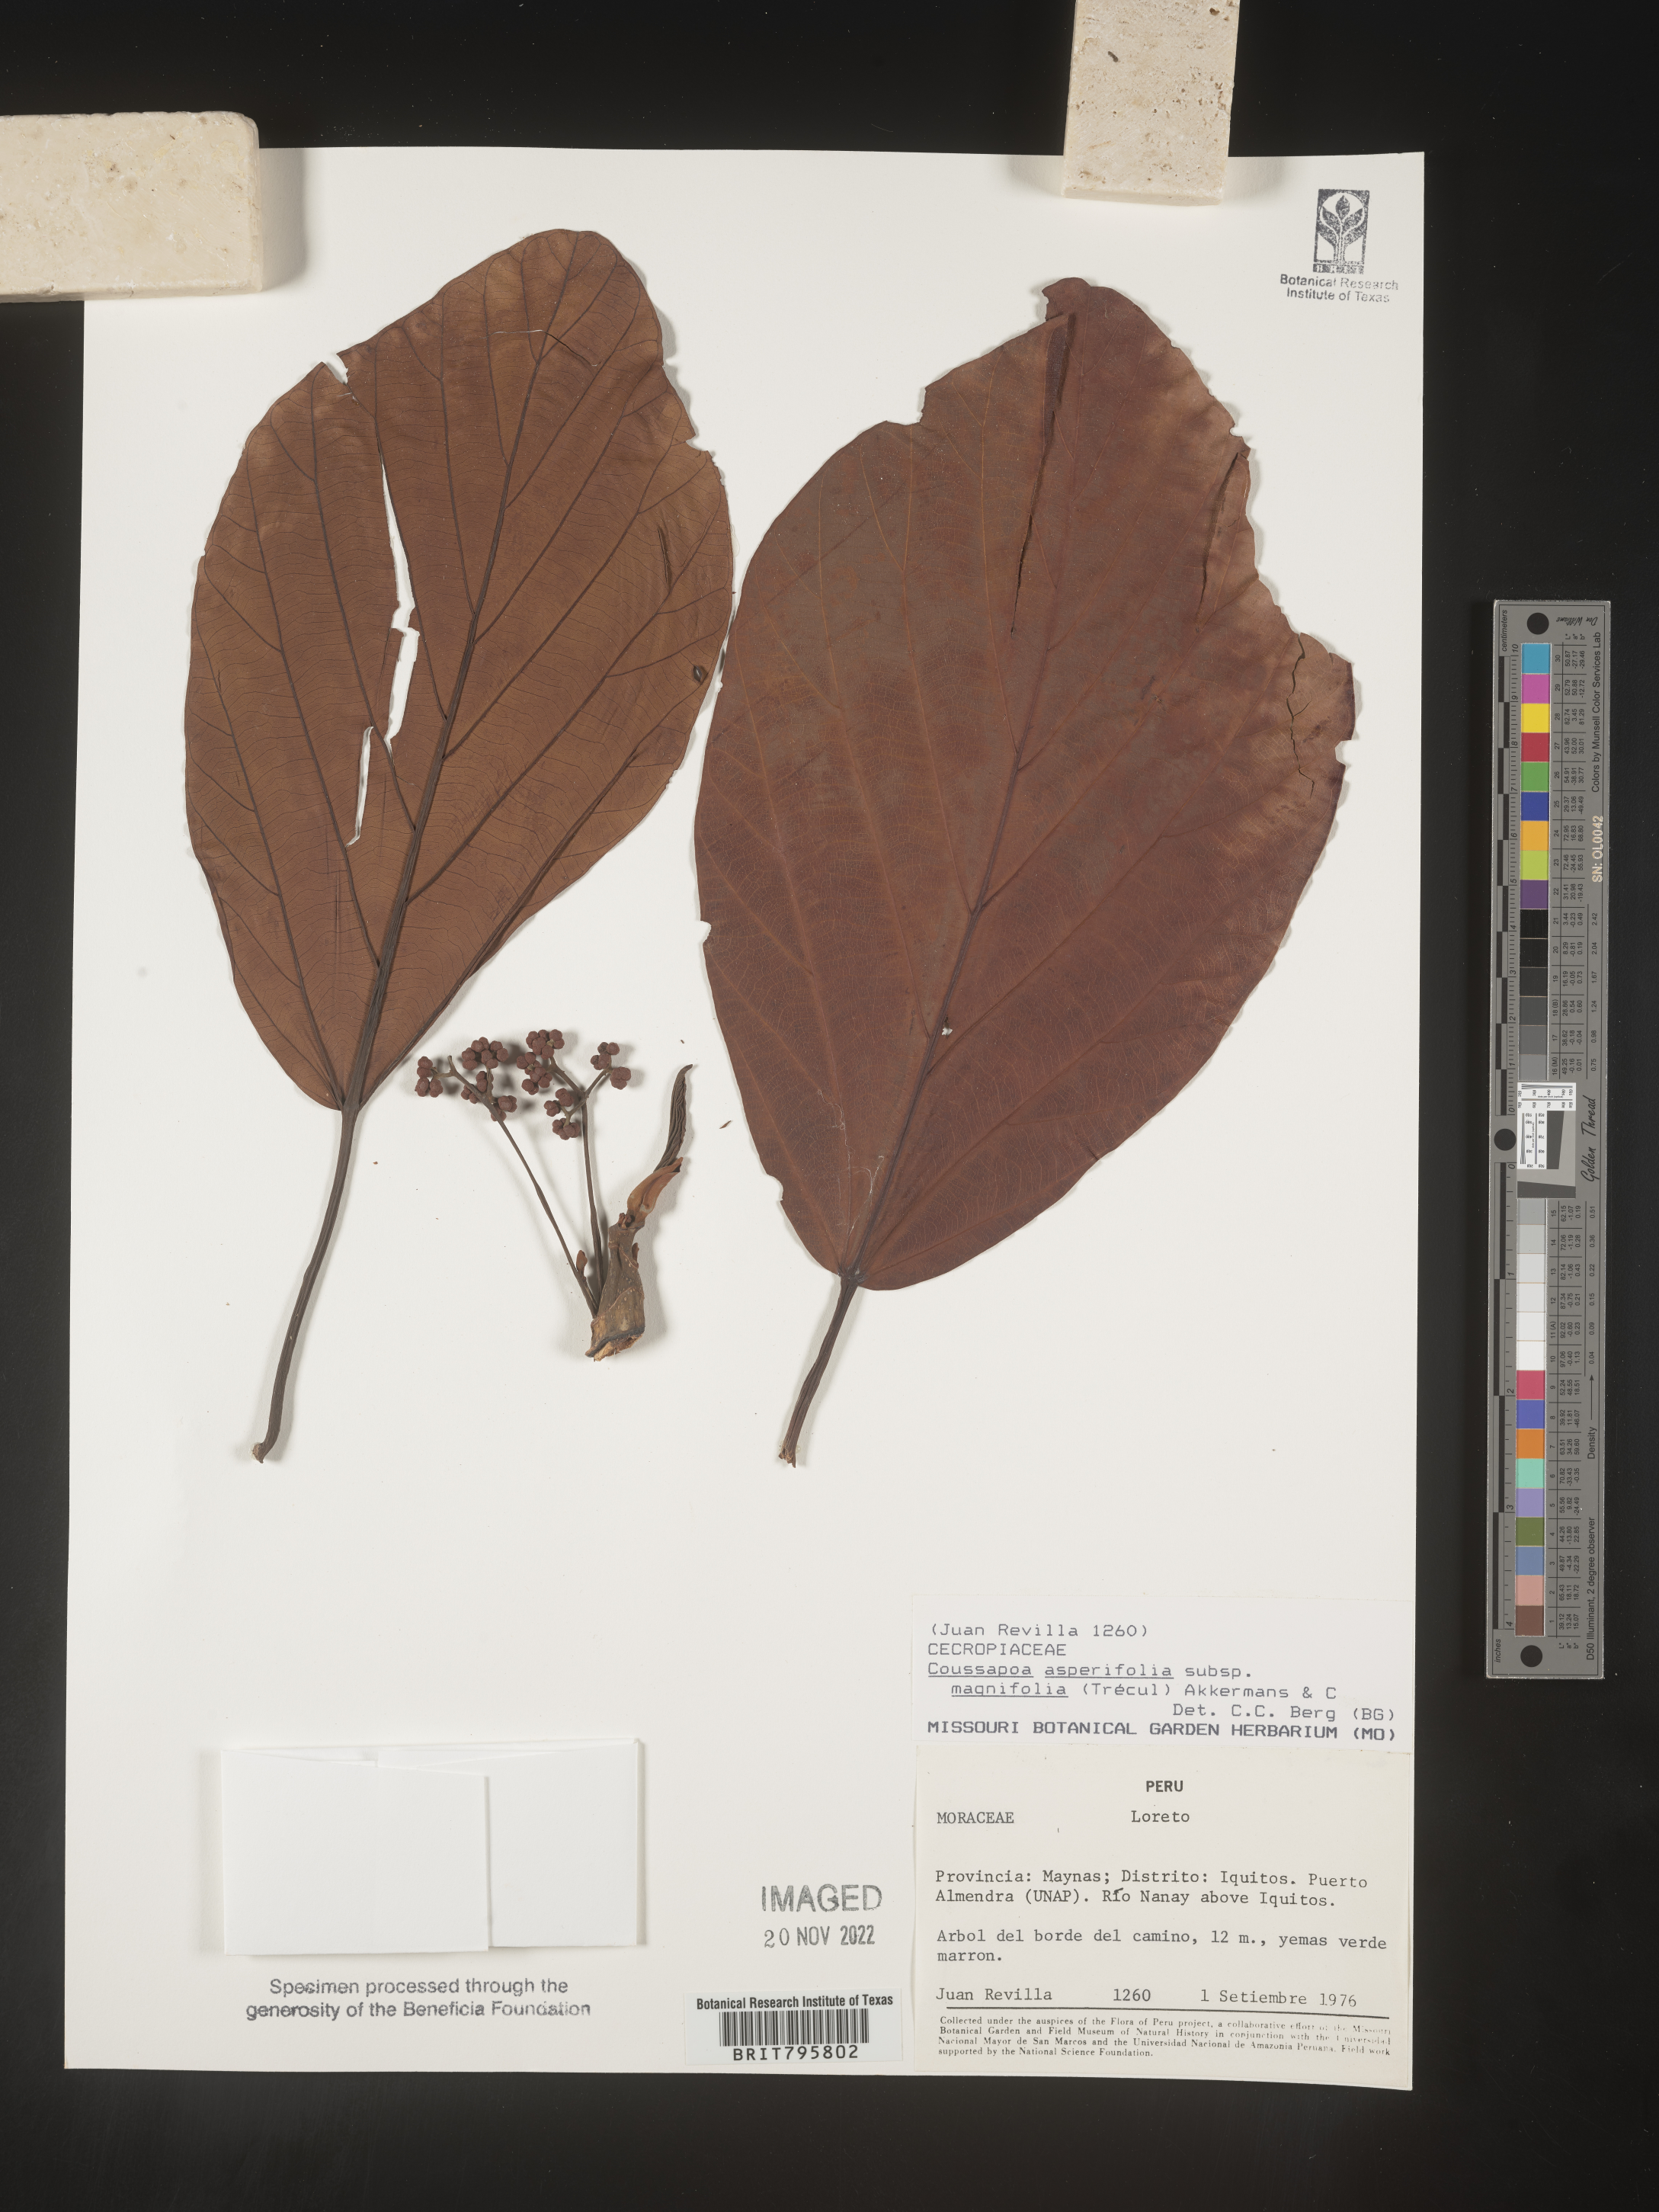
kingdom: Plantae
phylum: Tracheophyta
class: Magnoliopsida
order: Rosales
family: Urticaceae
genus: Coussapoa
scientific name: Coussapoa
